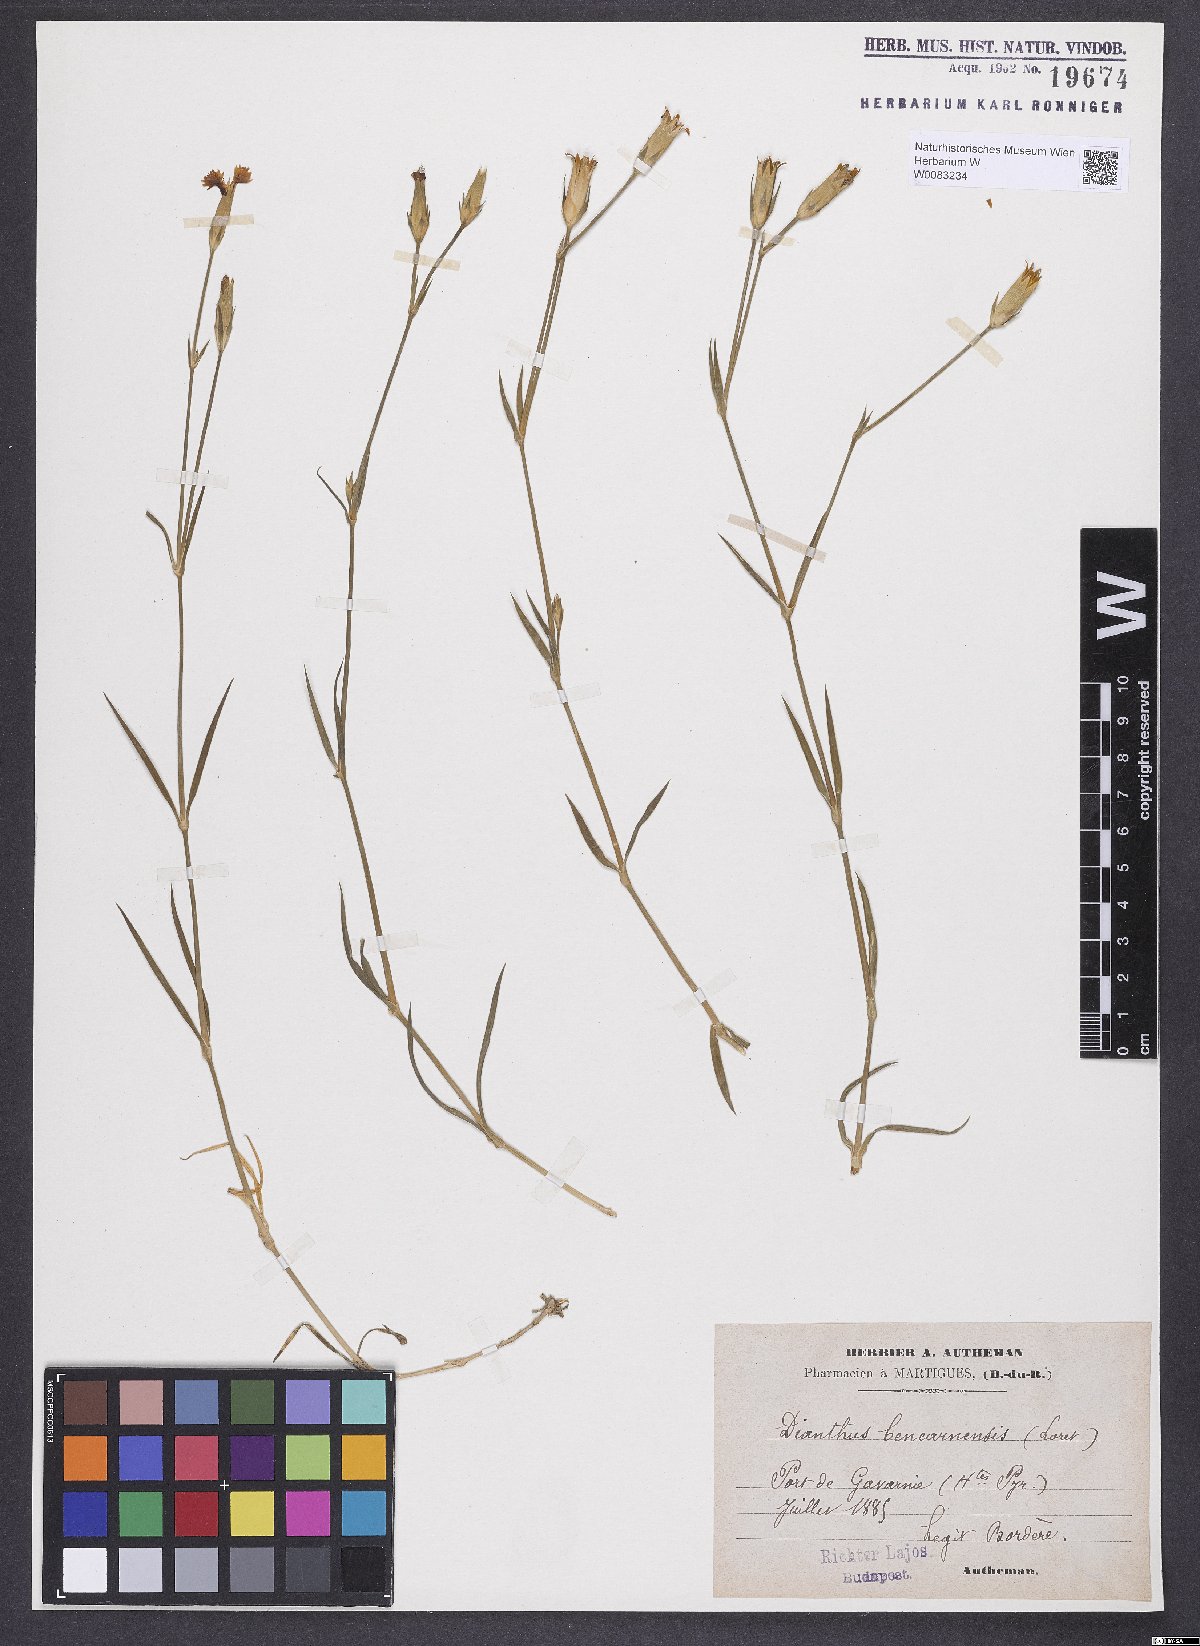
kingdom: Plantae
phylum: Tracheophyta
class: Magnoliopsida
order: Caryophyllales
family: Caryophyllaceae
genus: Dianthus
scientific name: Dianthus furcatus
